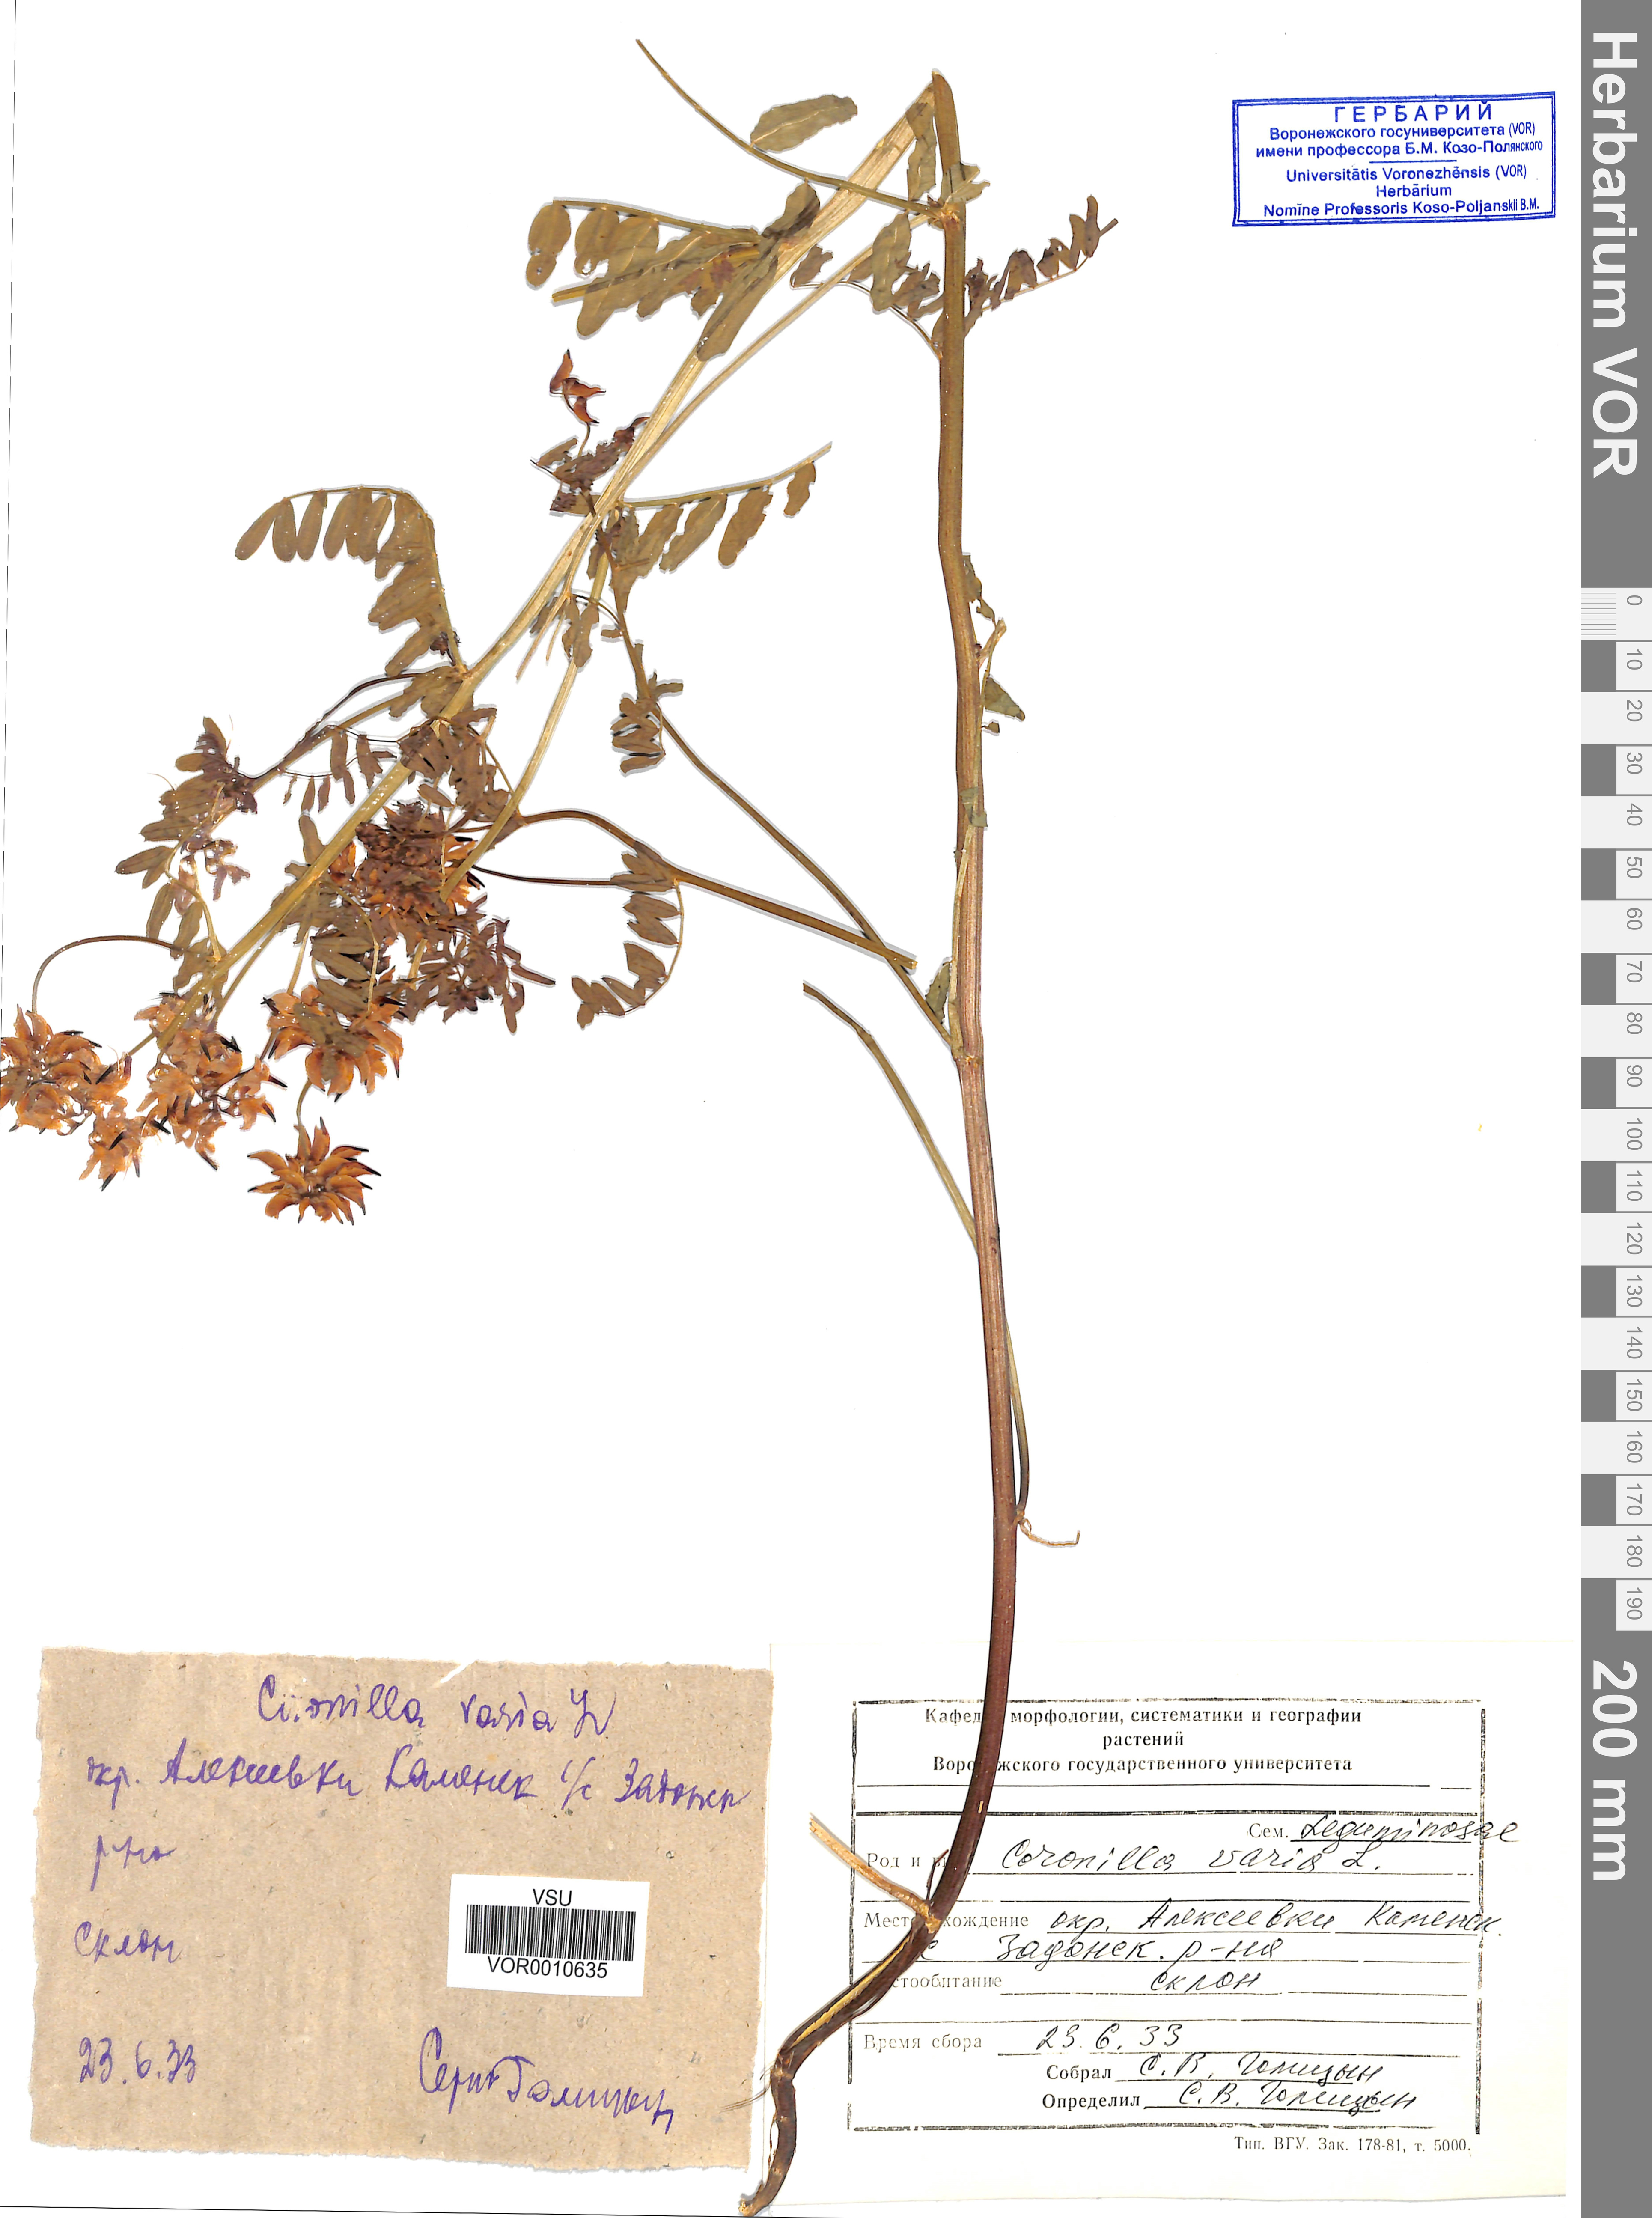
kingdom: Plantae
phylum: Tracheophyta
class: Magnoliopsida
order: Fabales
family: Fabaceae
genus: Coronilla
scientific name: Coronilla varia
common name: Crownvetch
